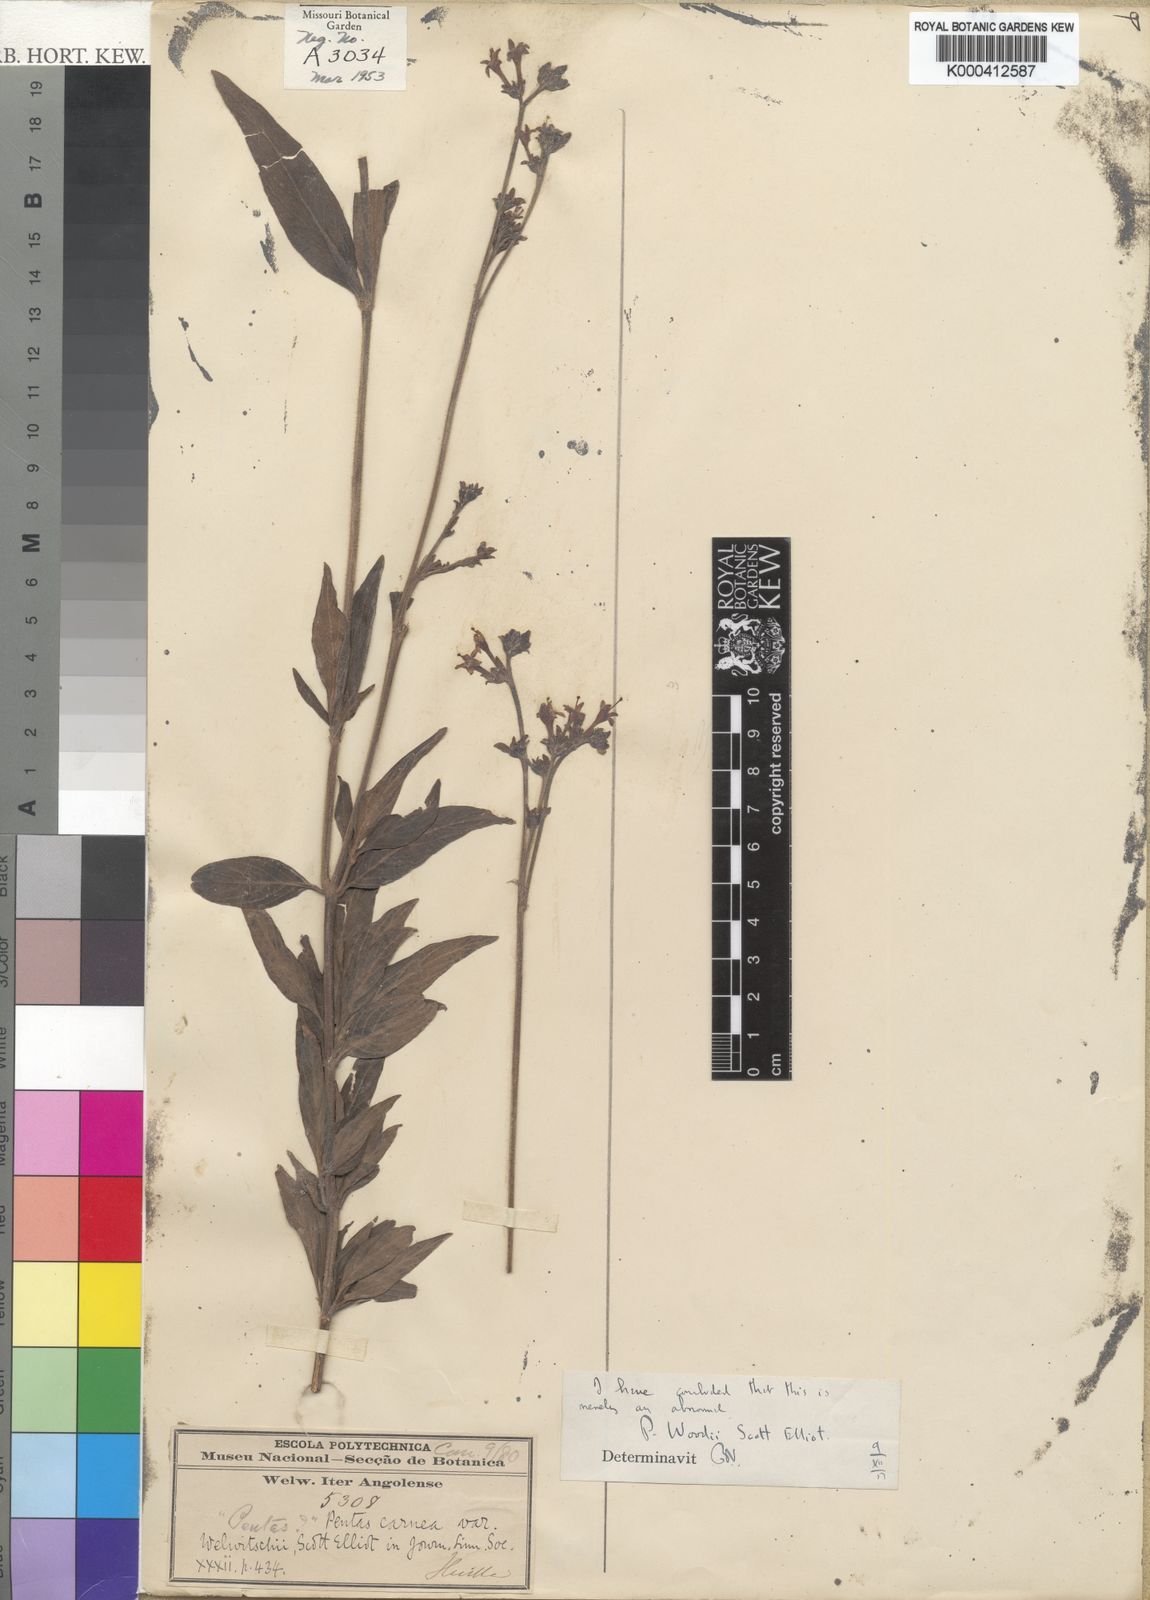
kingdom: Plantae
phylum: Tracheophyta
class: Magnoliopsida
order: Gentianales
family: Rubiaceae
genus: Pentas
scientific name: Pentas angustifolia
